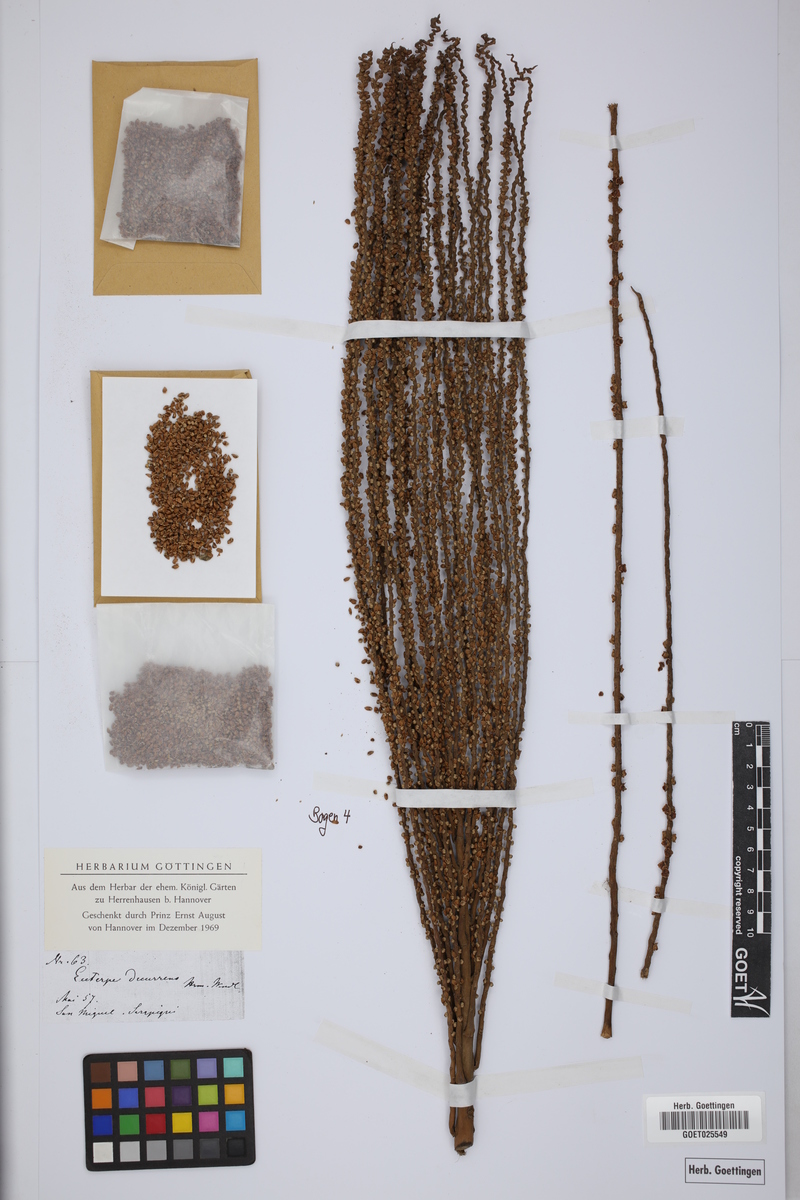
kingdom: Plantae
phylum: Tracheophyta
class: Liliopsida
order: Arecales
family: Arecaceae
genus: Prestoea
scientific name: Prestoea decurrens
